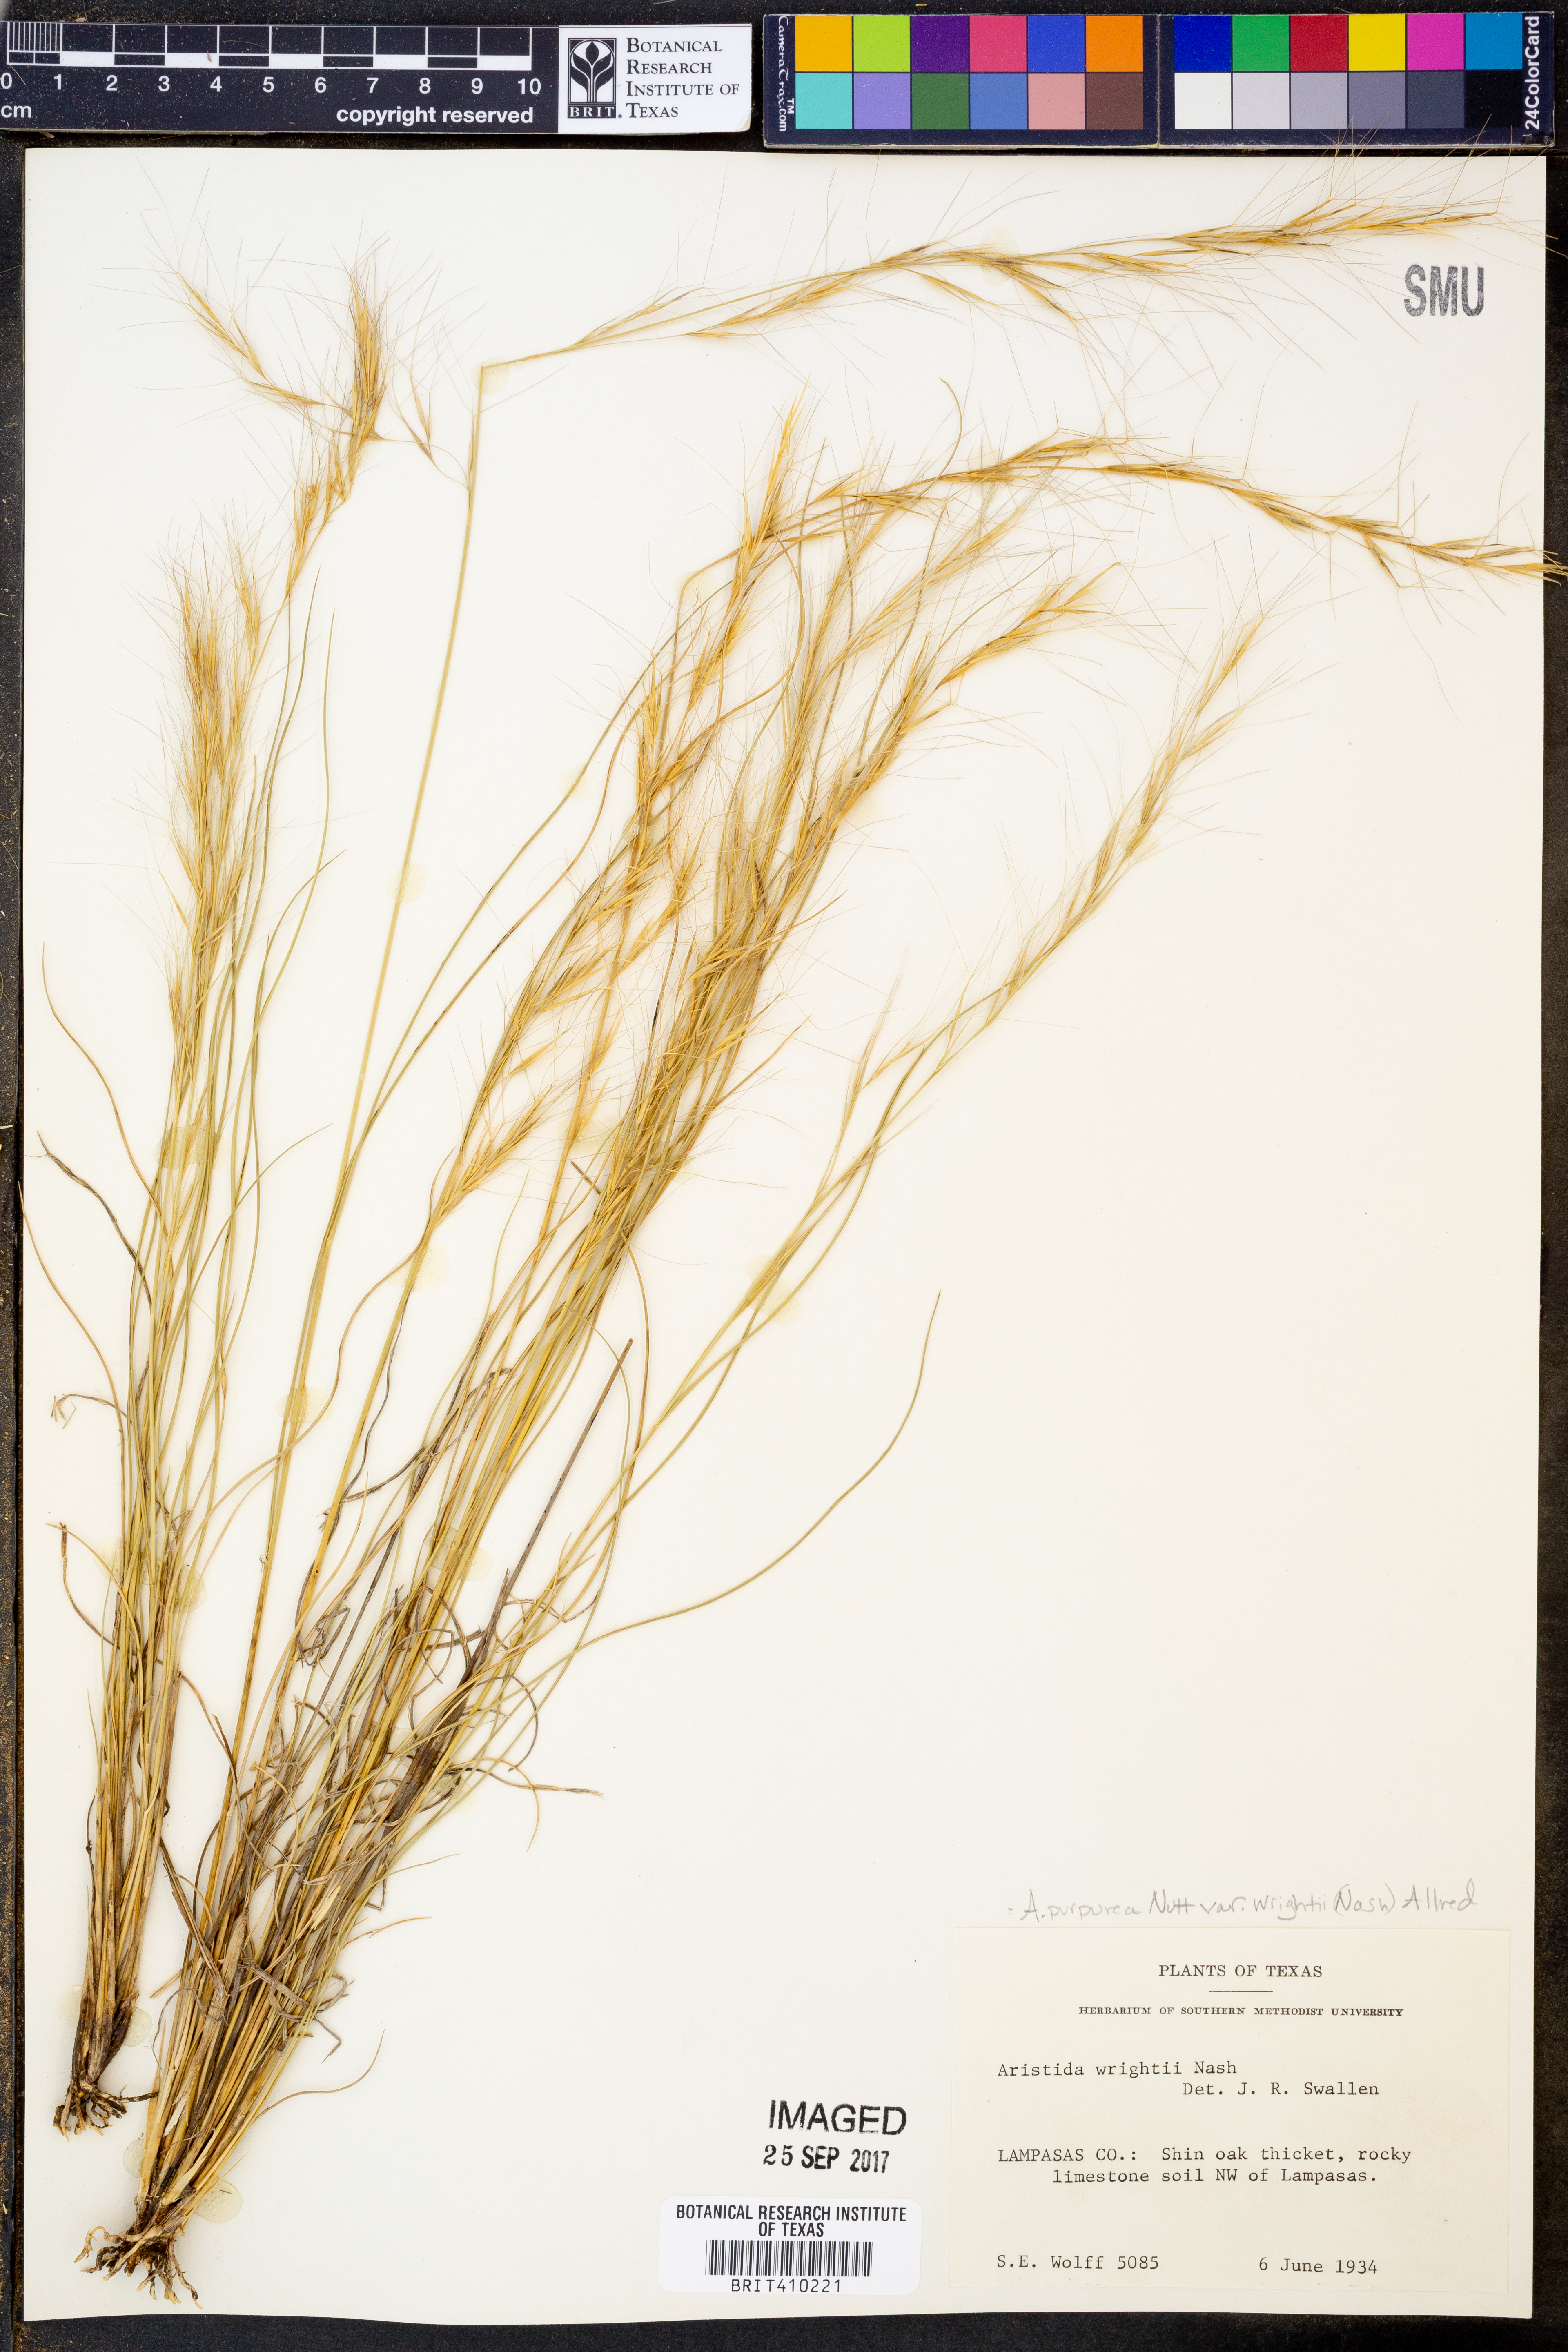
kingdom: Plantae
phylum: Tracheophyta
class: Liliopsida
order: Poales
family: Poaceae
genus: Aristida
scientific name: Aristida wrightii
